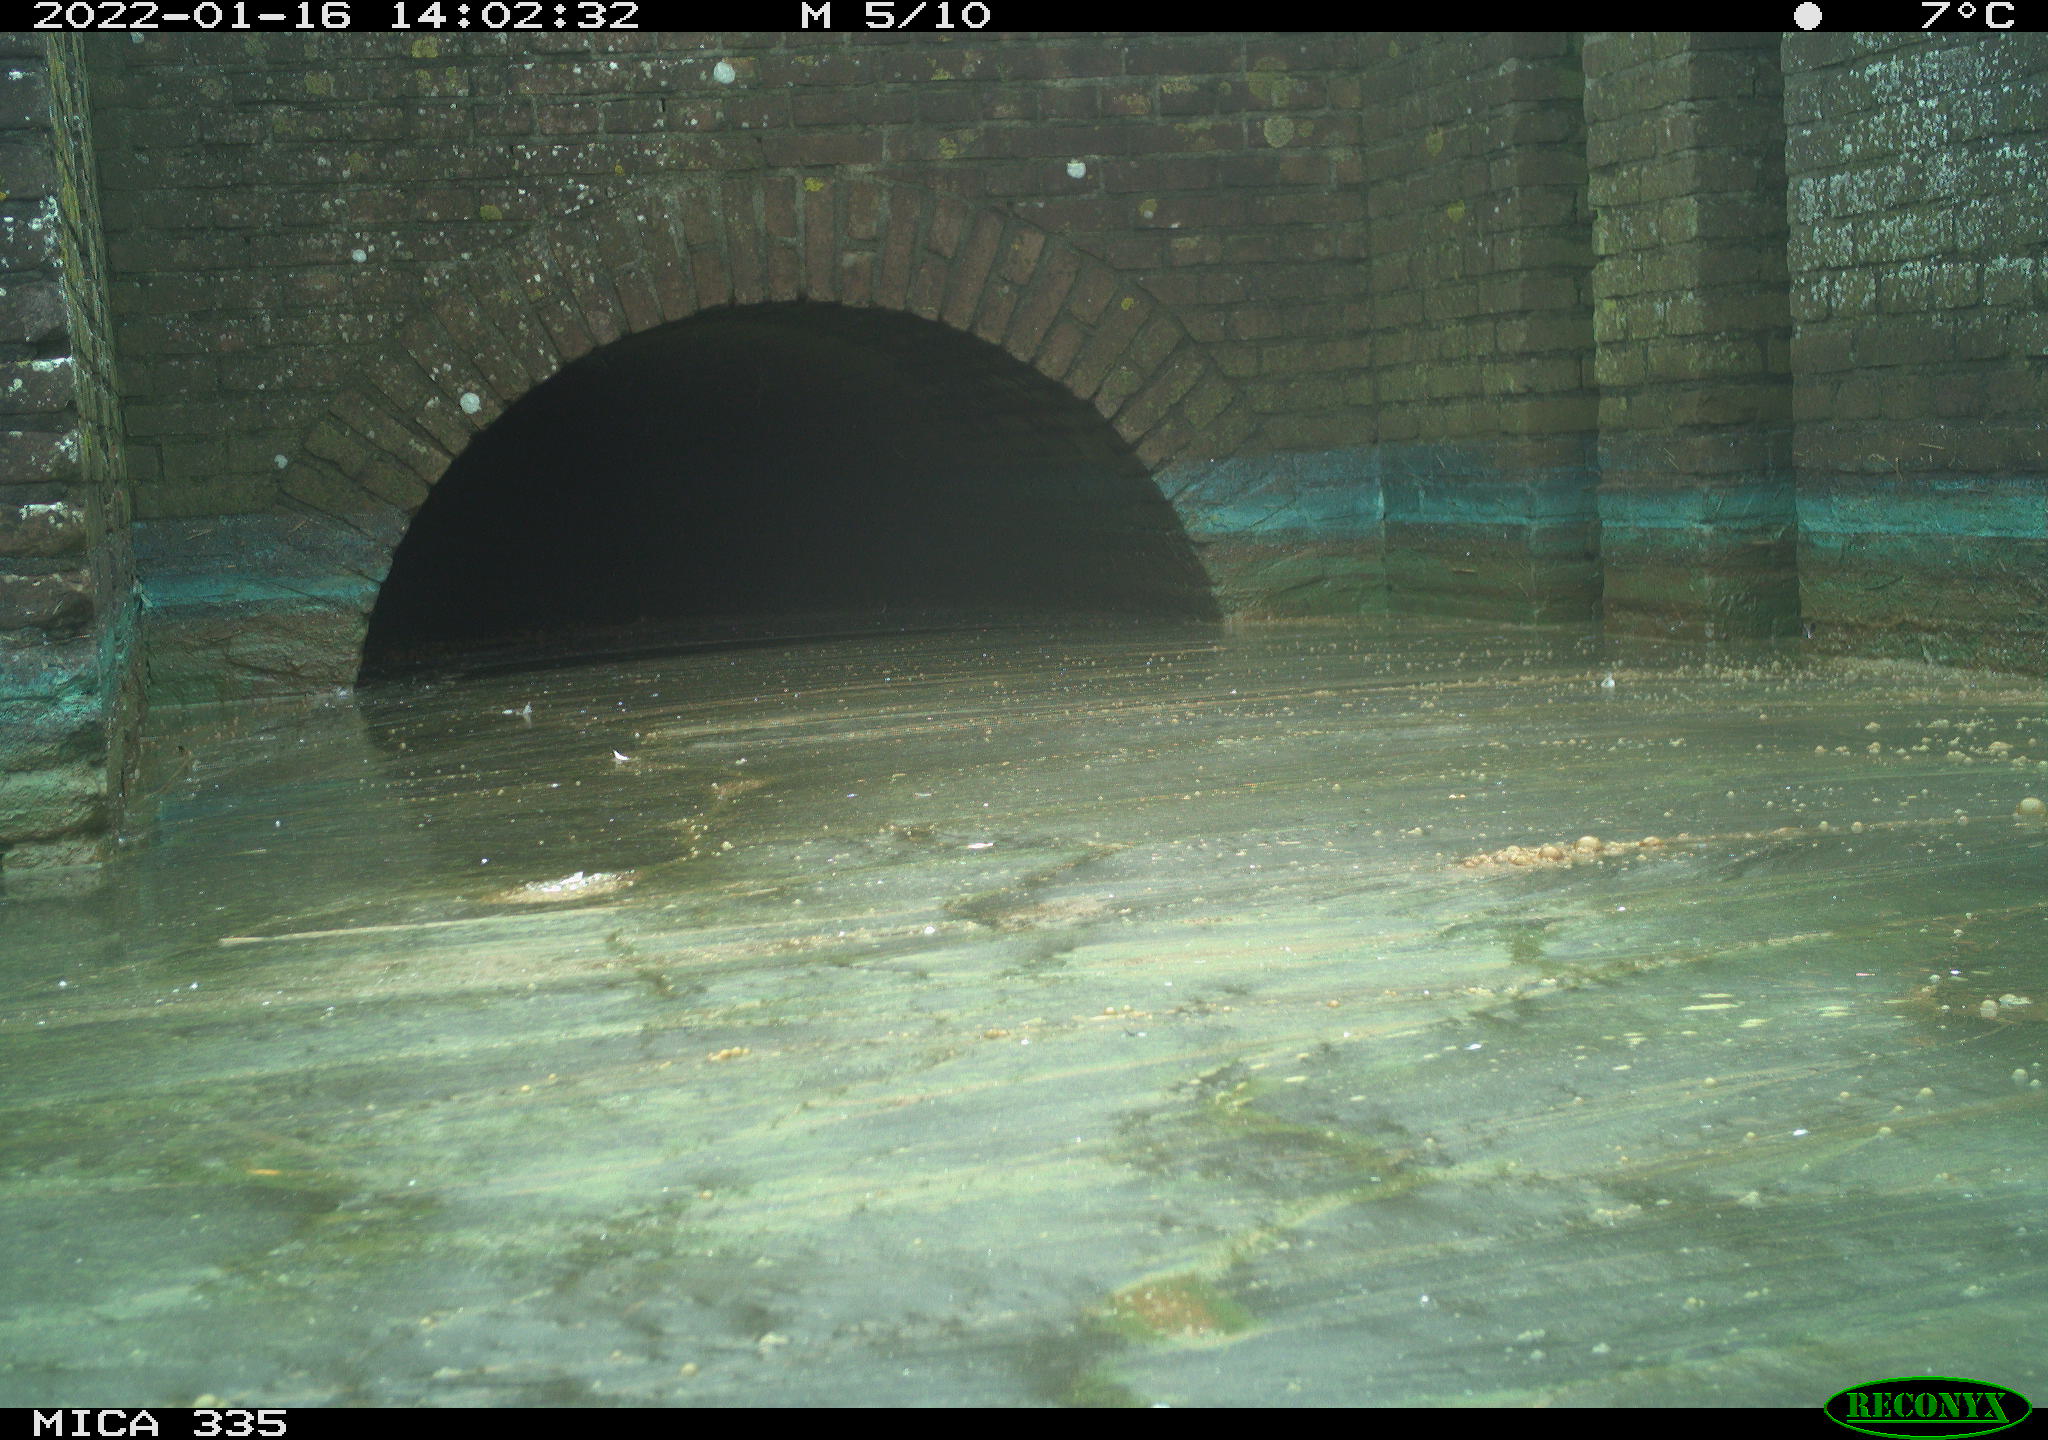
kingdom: Animalia
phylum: Chordata
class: Aves
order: Gruiformes
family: Rallidae
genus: Gallinula
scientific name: Gallinula chloropus
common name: Common moorhen
